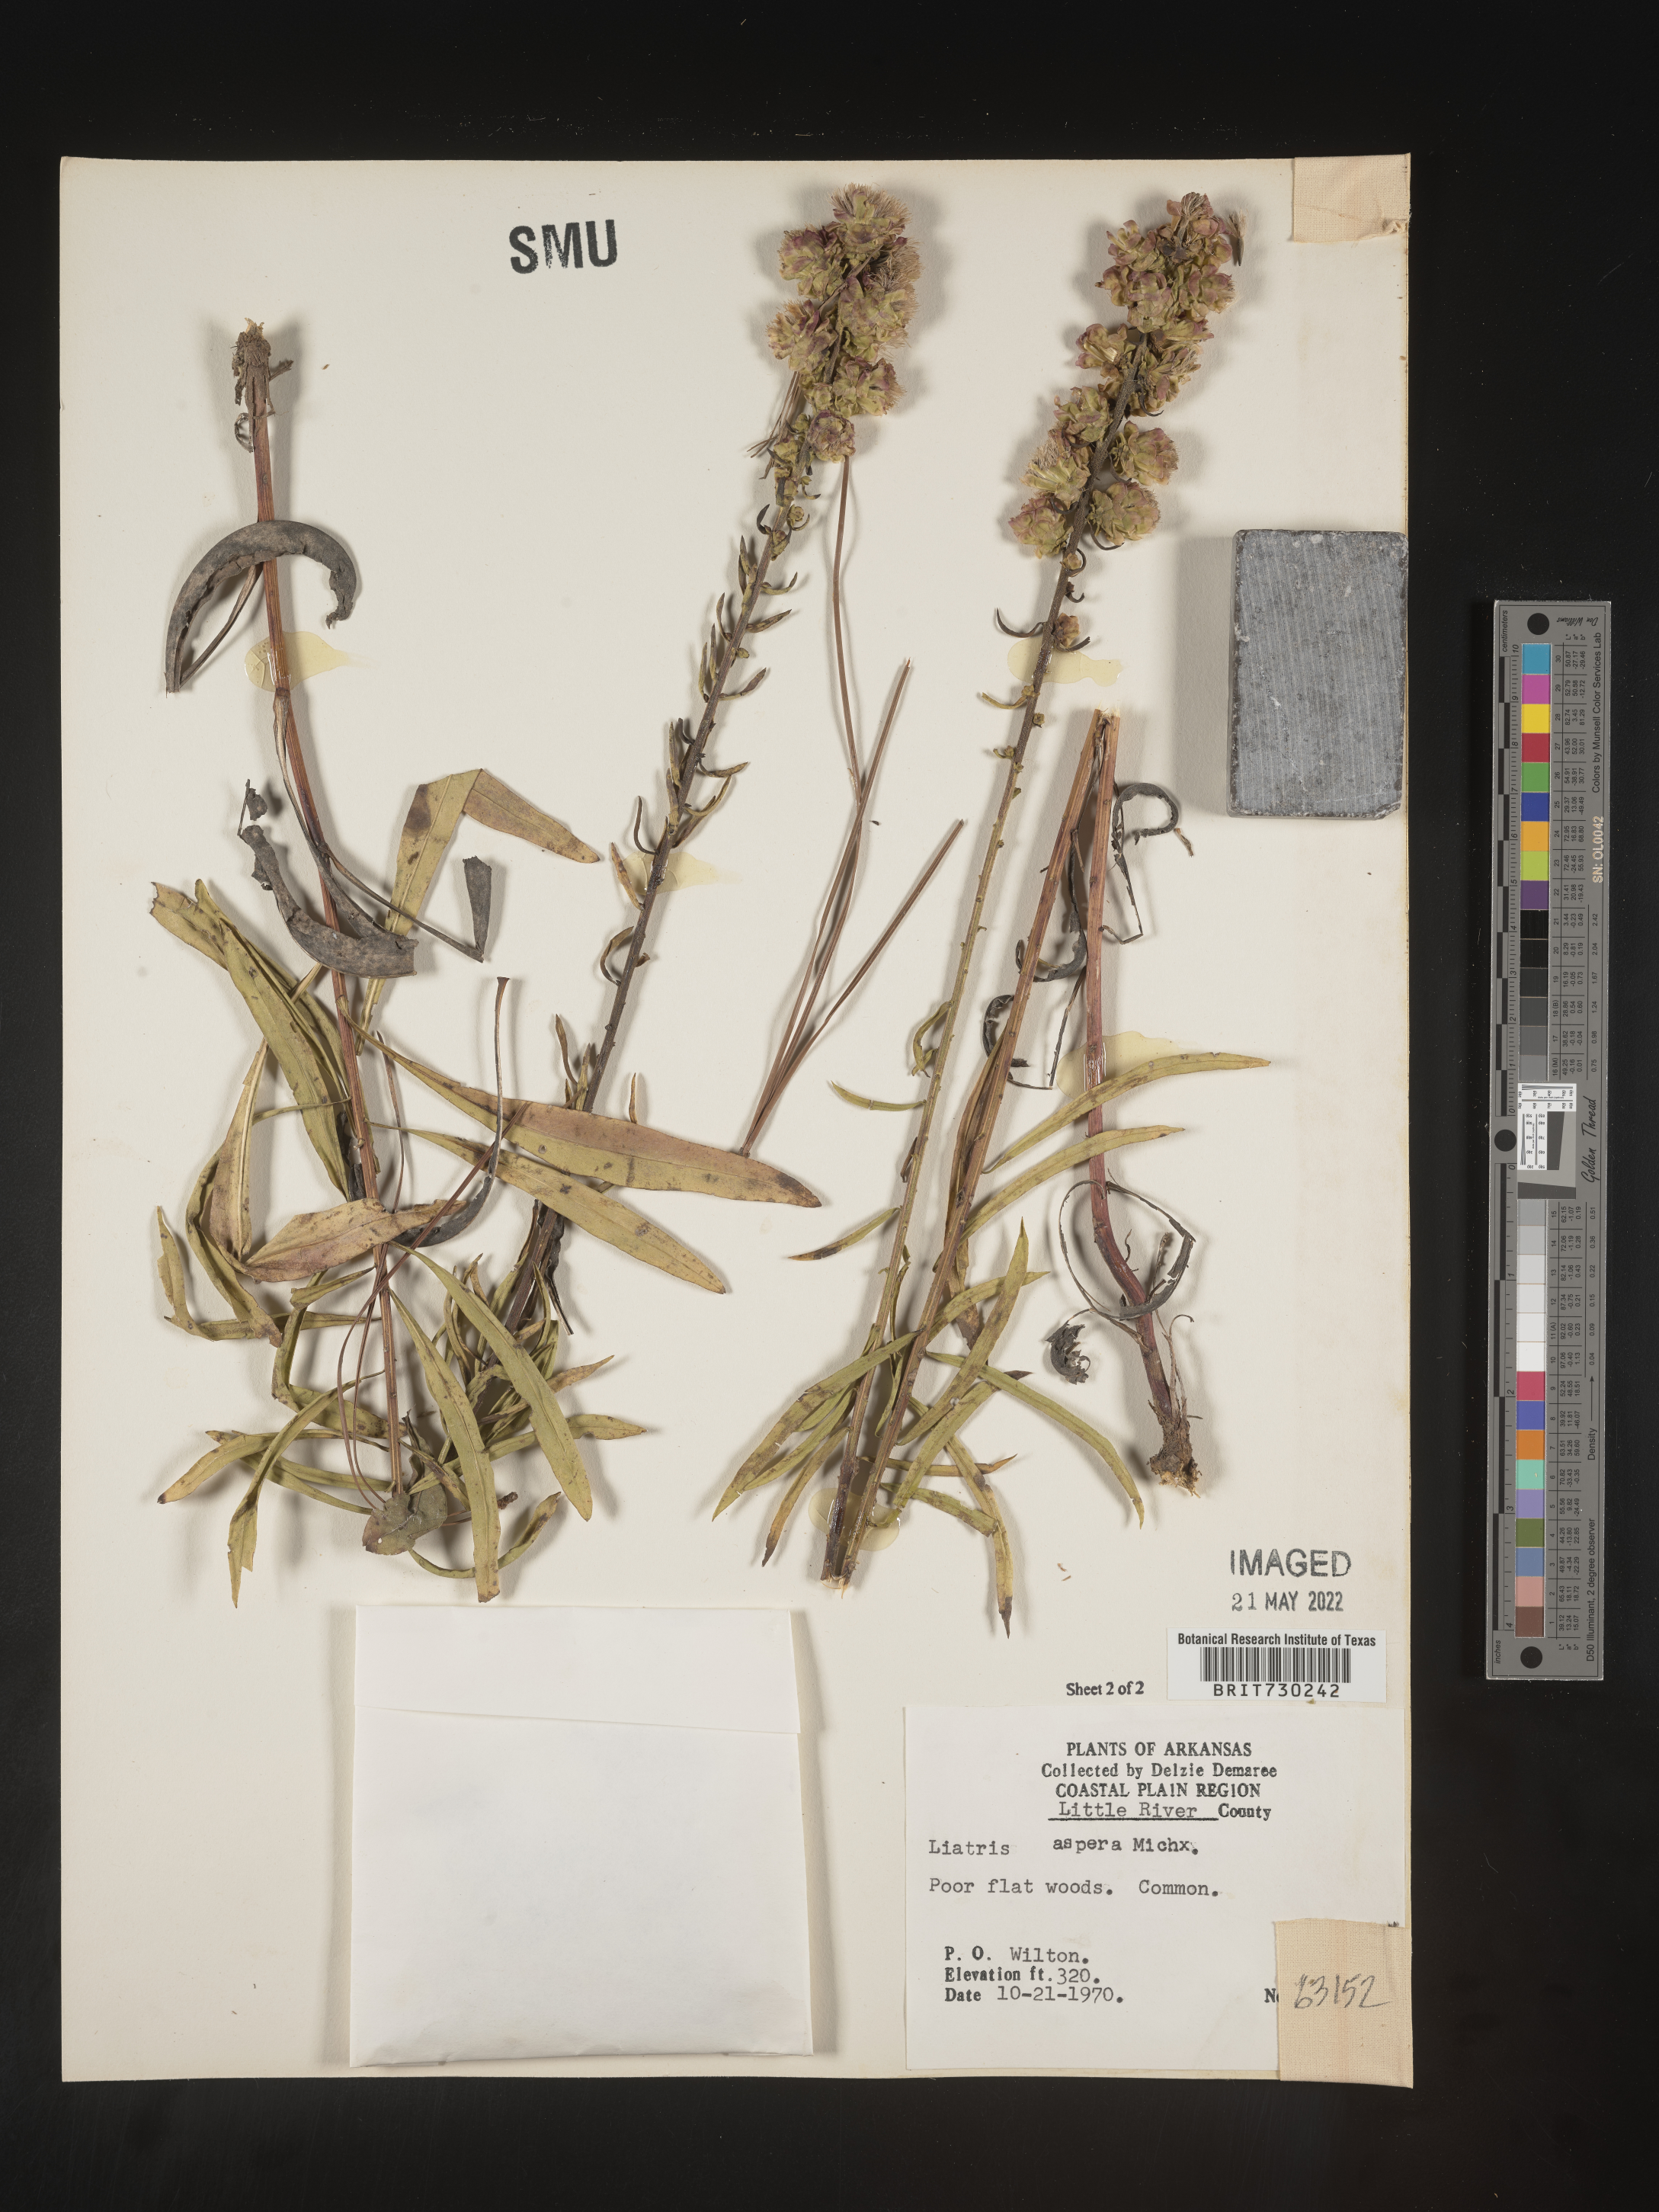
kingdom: Plantae
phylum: Tracheophyta
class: Magnoliopsida
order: Asterales
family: Asteraceae
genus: Liatris
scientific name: Liatris aspera
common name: Lacerate blazing-star
